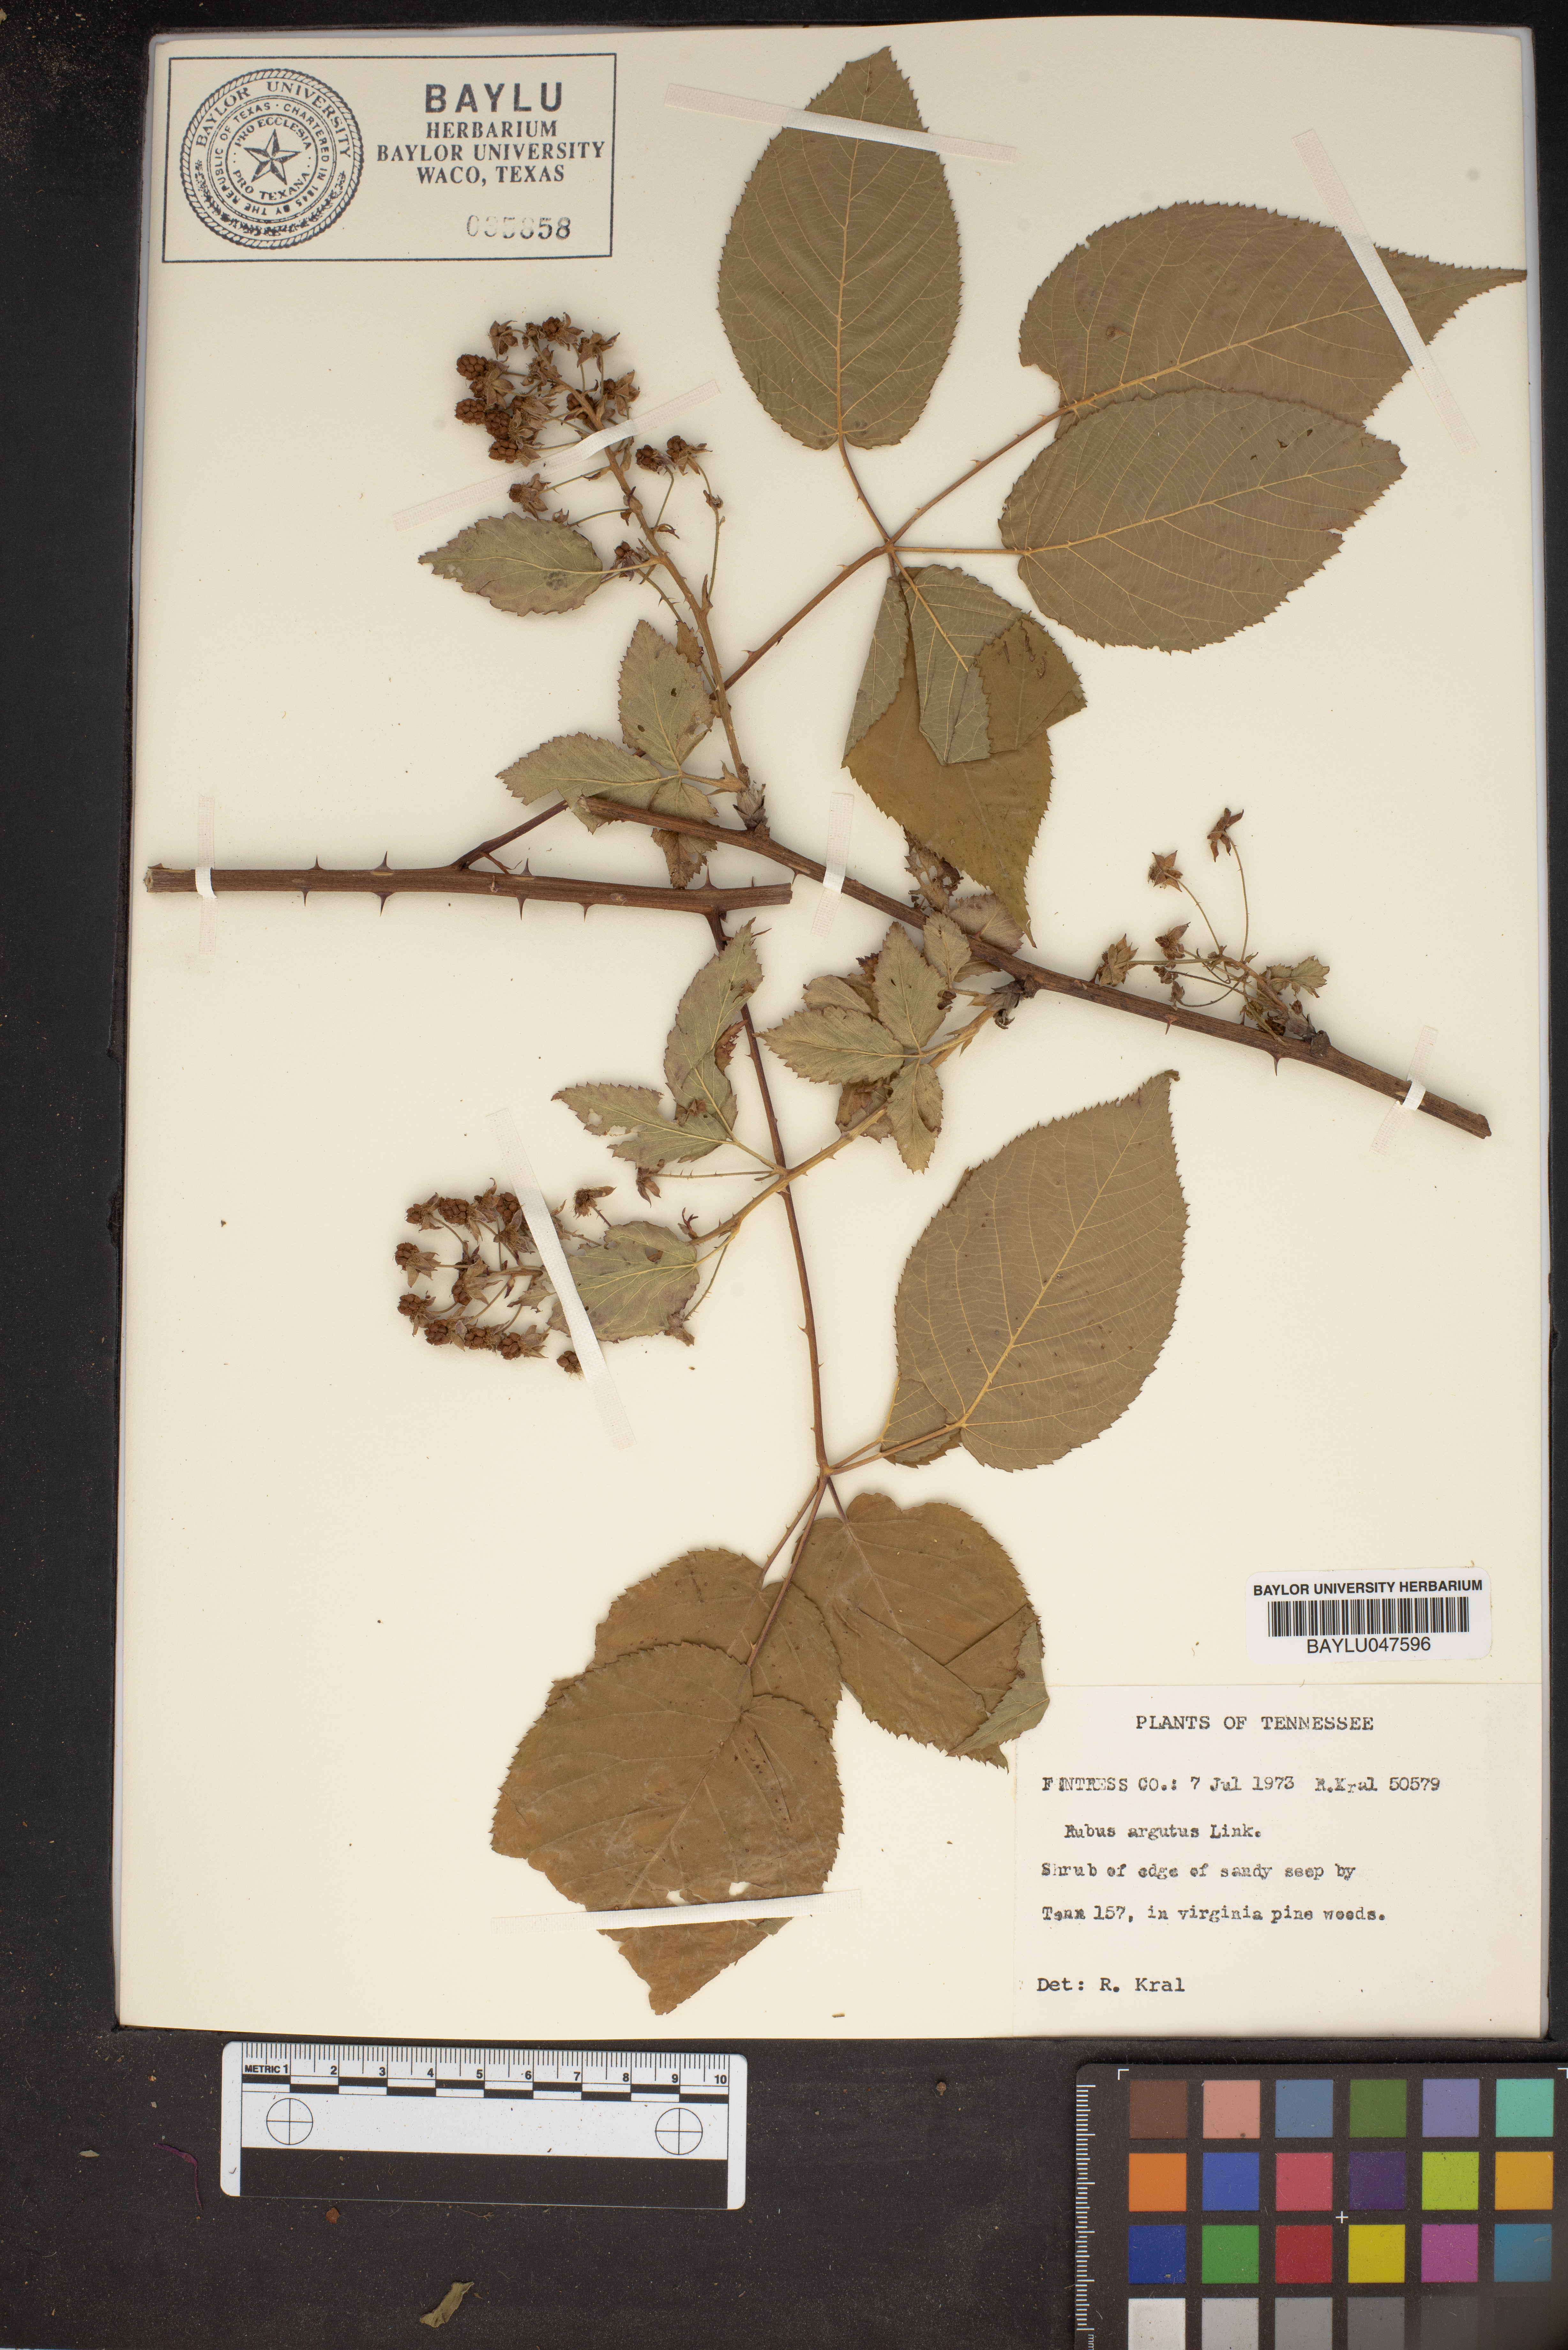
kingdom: Plantae
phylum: Tracheophyta
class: Magnoliopsida
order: Rosales
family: Rosaceae
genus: Rubus
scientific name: Rubus argutus
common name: Sawtooth blackberry
